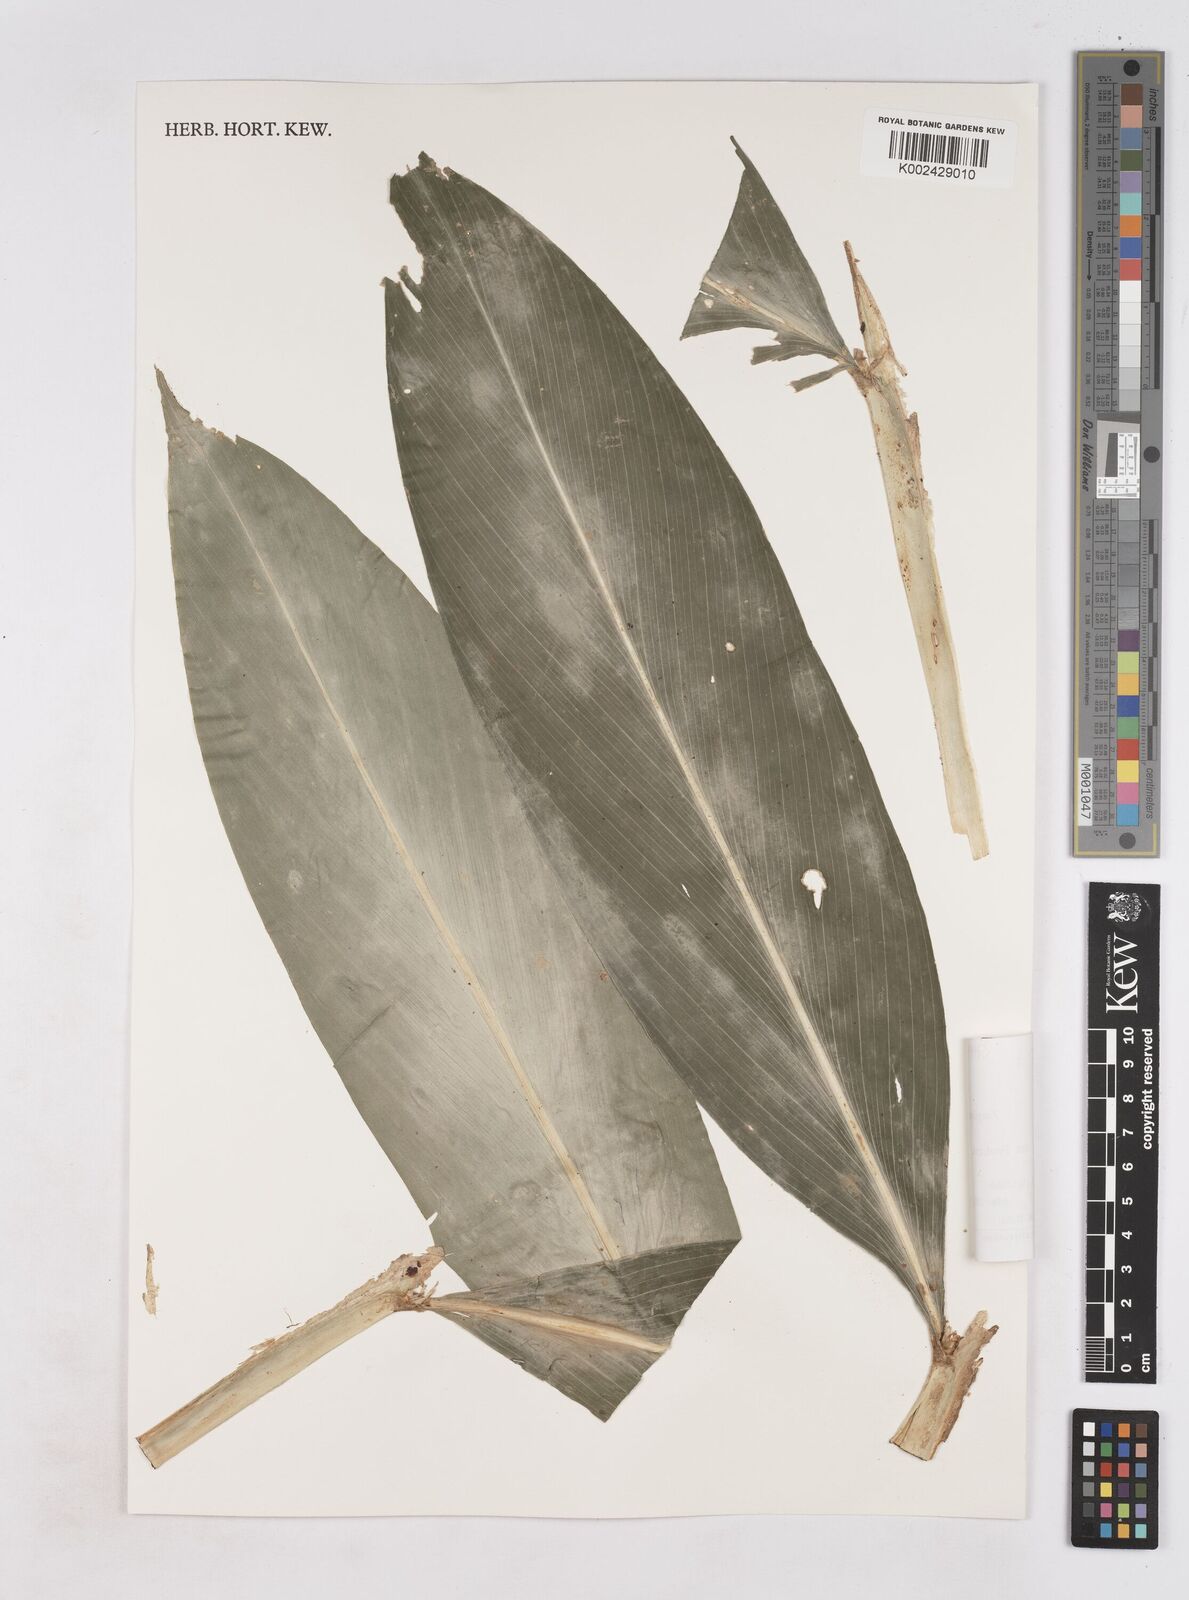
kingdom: Plantae
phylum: Tracheophyta
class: Liliopsida
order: Zingiberales
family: Zingiberaceae
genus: Zingiber
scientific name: Zingiber pseudopungens
